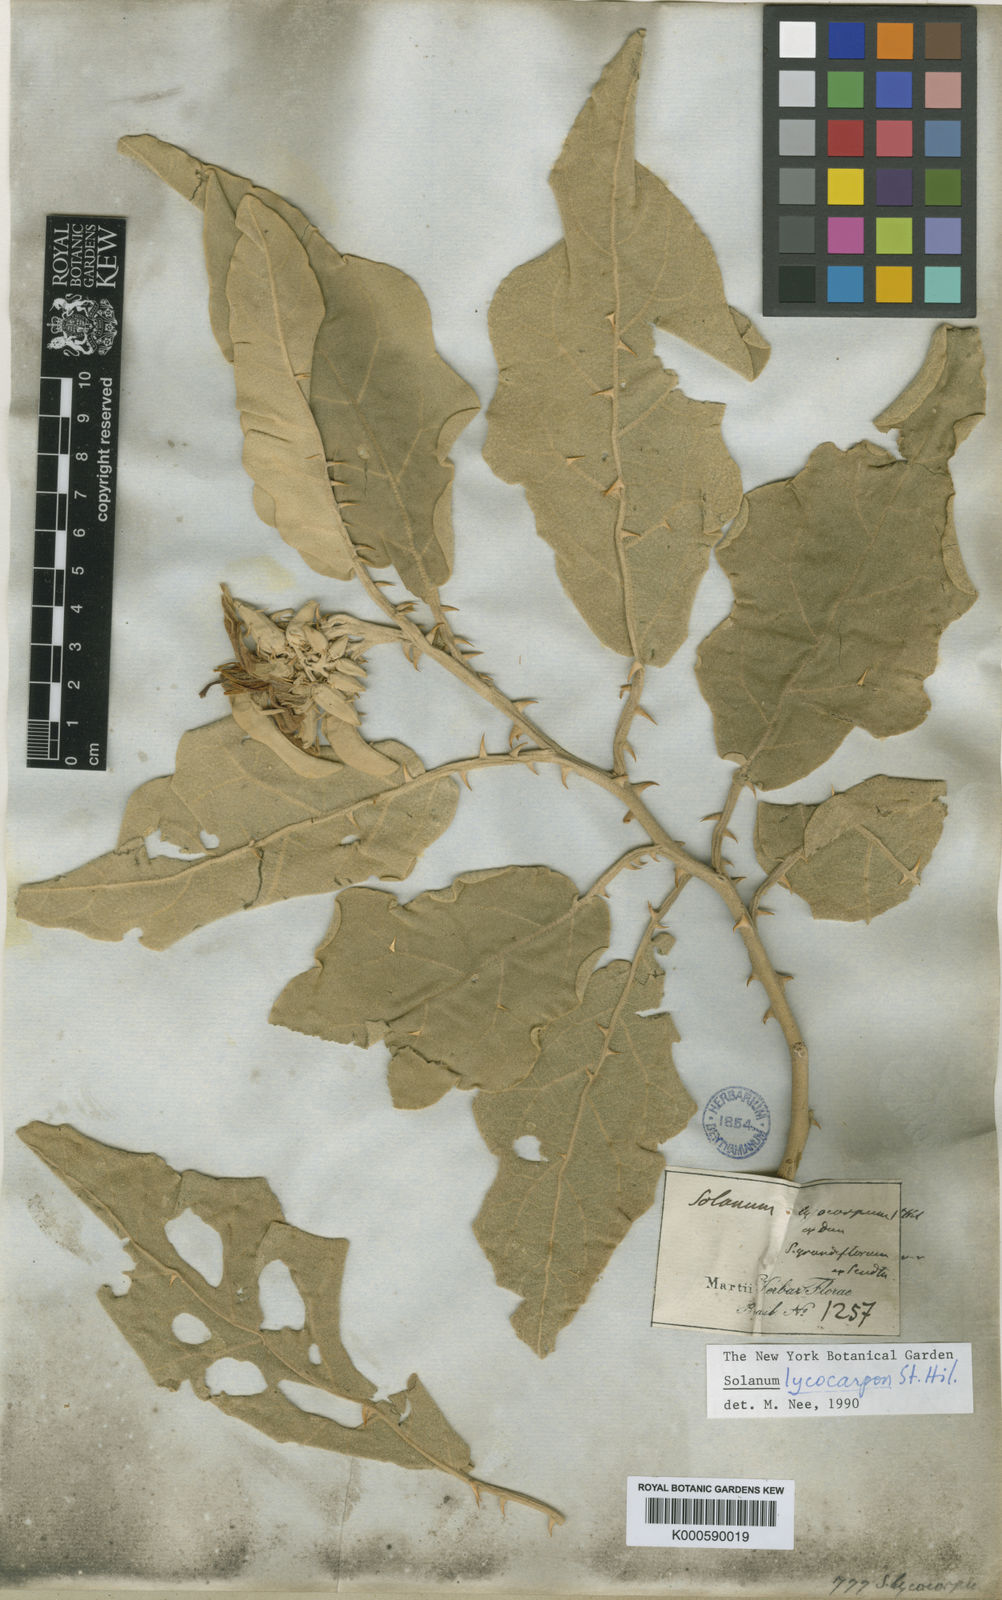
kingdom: Plantae
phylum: Tracheophyta
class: Magnoliopsida
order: Solanales
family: Solanaceae
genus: Solanum
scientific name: Solanum lycocarpum
